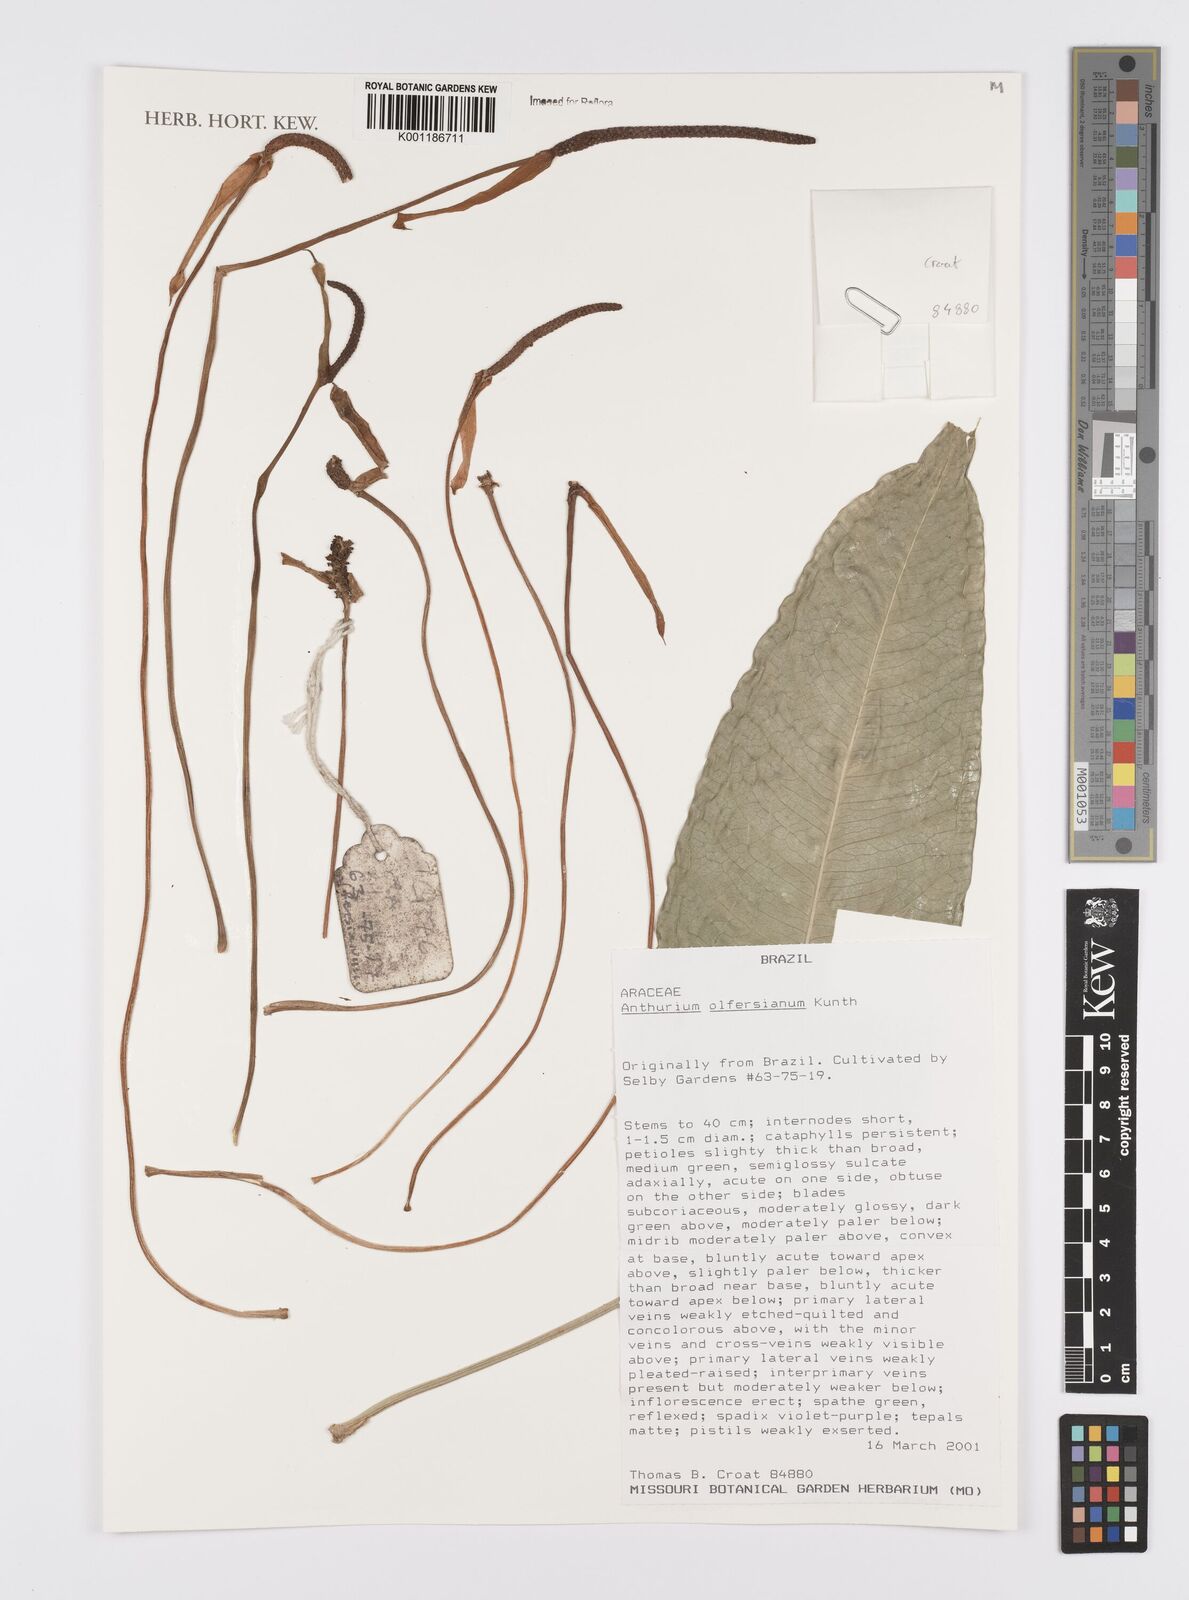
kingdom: Plantae
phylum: Tracheophyta
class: Liliopsida
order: Alismatales
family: Araceae
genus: Anthurium
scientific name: Anthurium parasiticum
